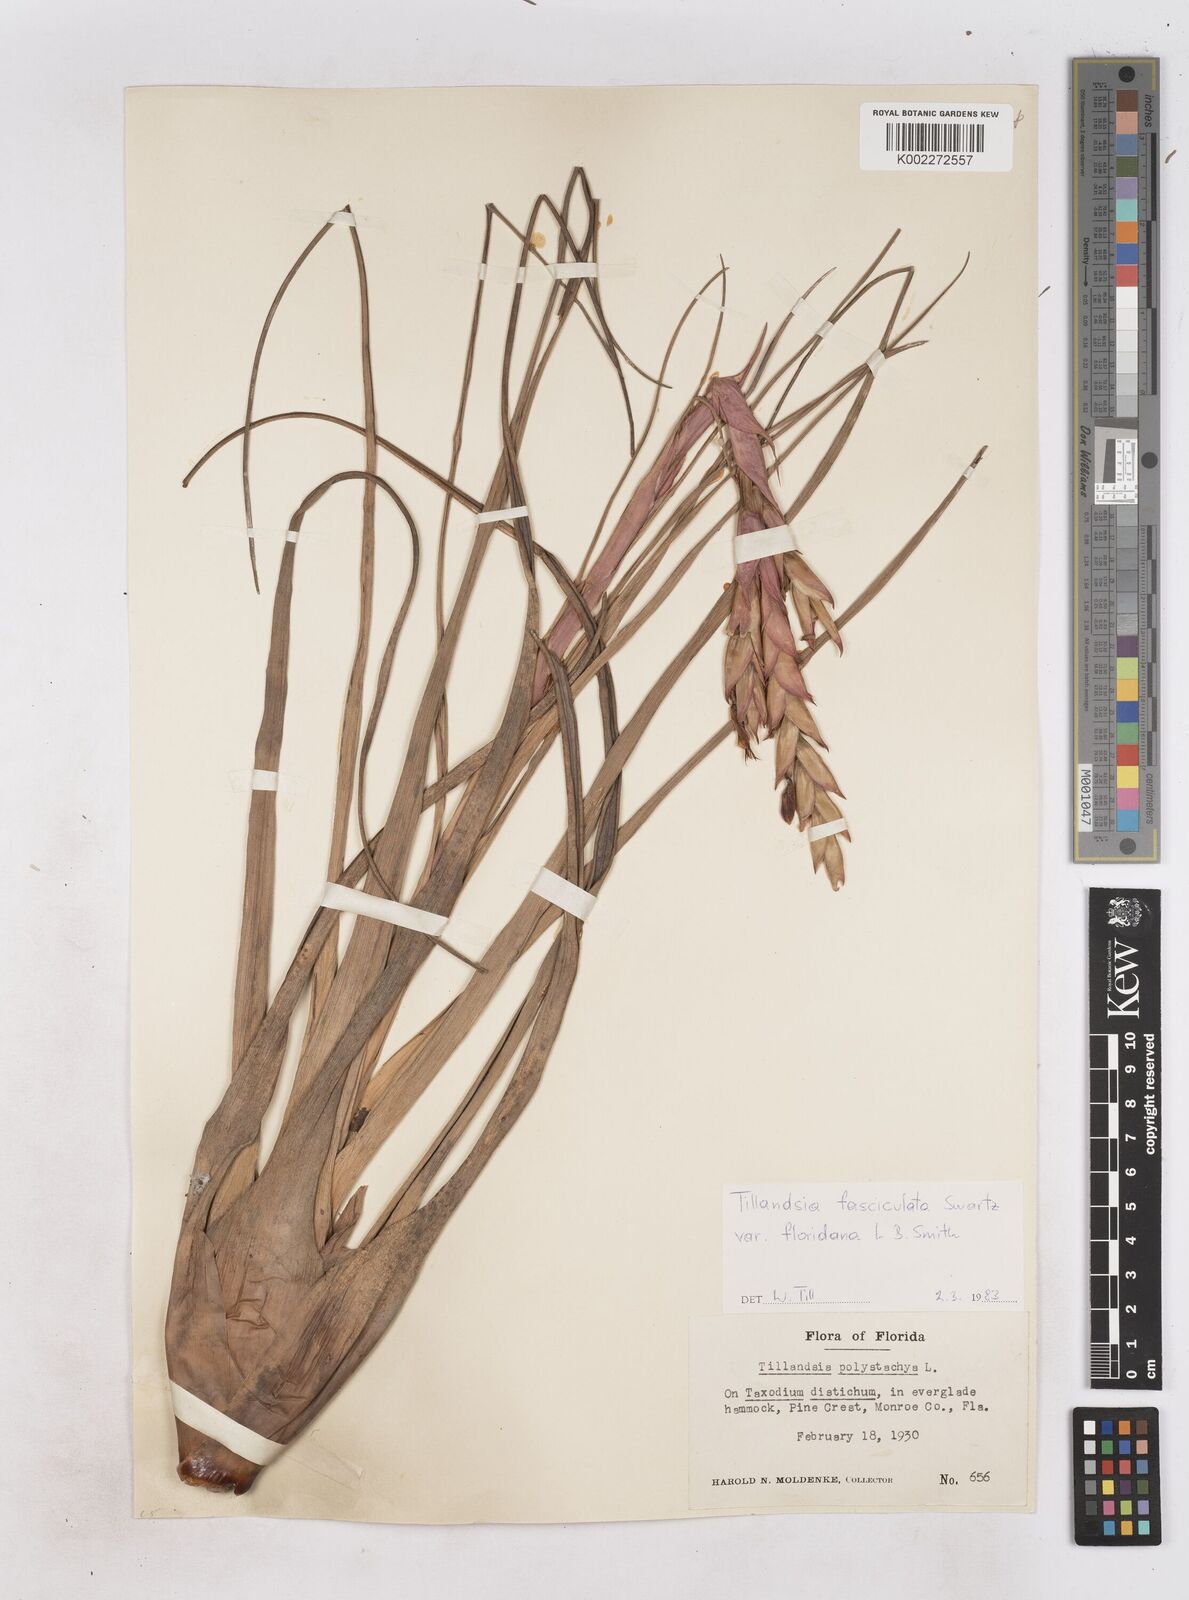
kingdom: Plantae
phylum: Tracheophyta
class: Liliopsida
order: Poales
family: Bromeliaceae
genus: Tillandsia
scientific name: Tillandsia floridana
